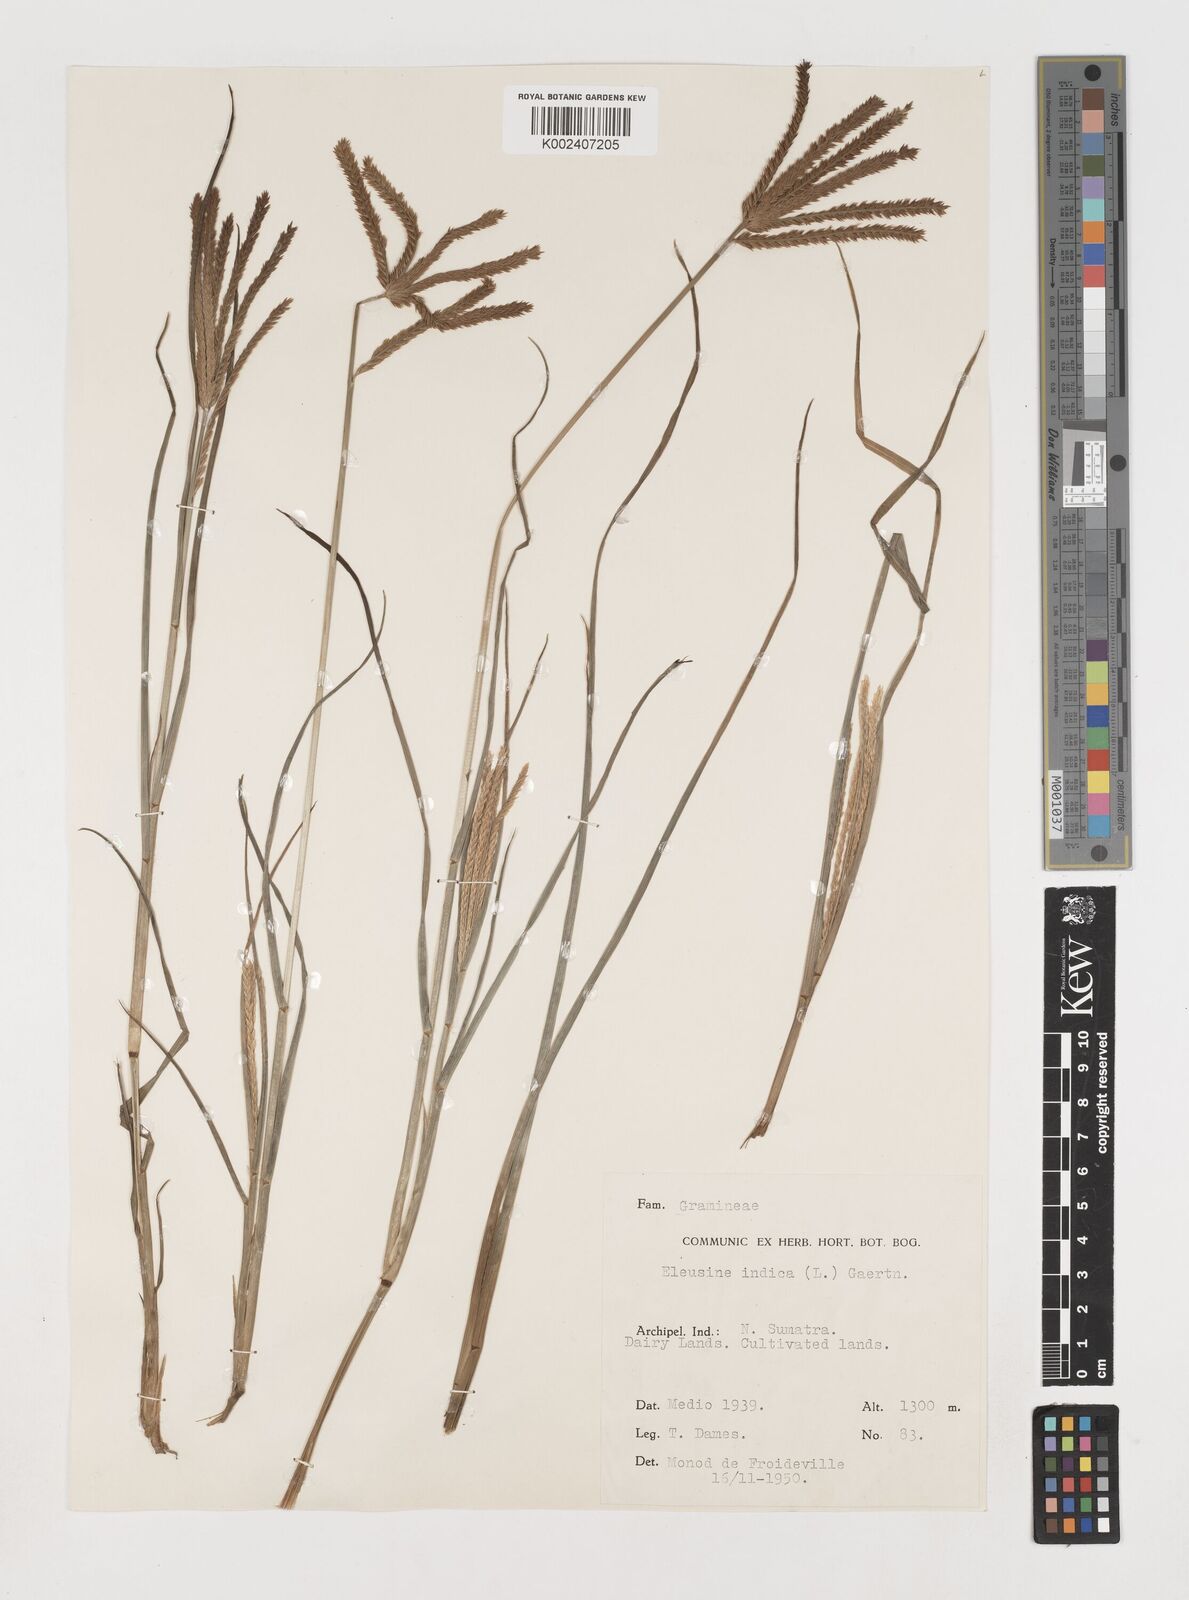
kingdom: Plantae
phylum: Tracheophyta
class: Liliopsida
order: Poales
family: Poaceae
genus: Eleusine
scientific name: Eleusine indica
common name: Yard-grass
